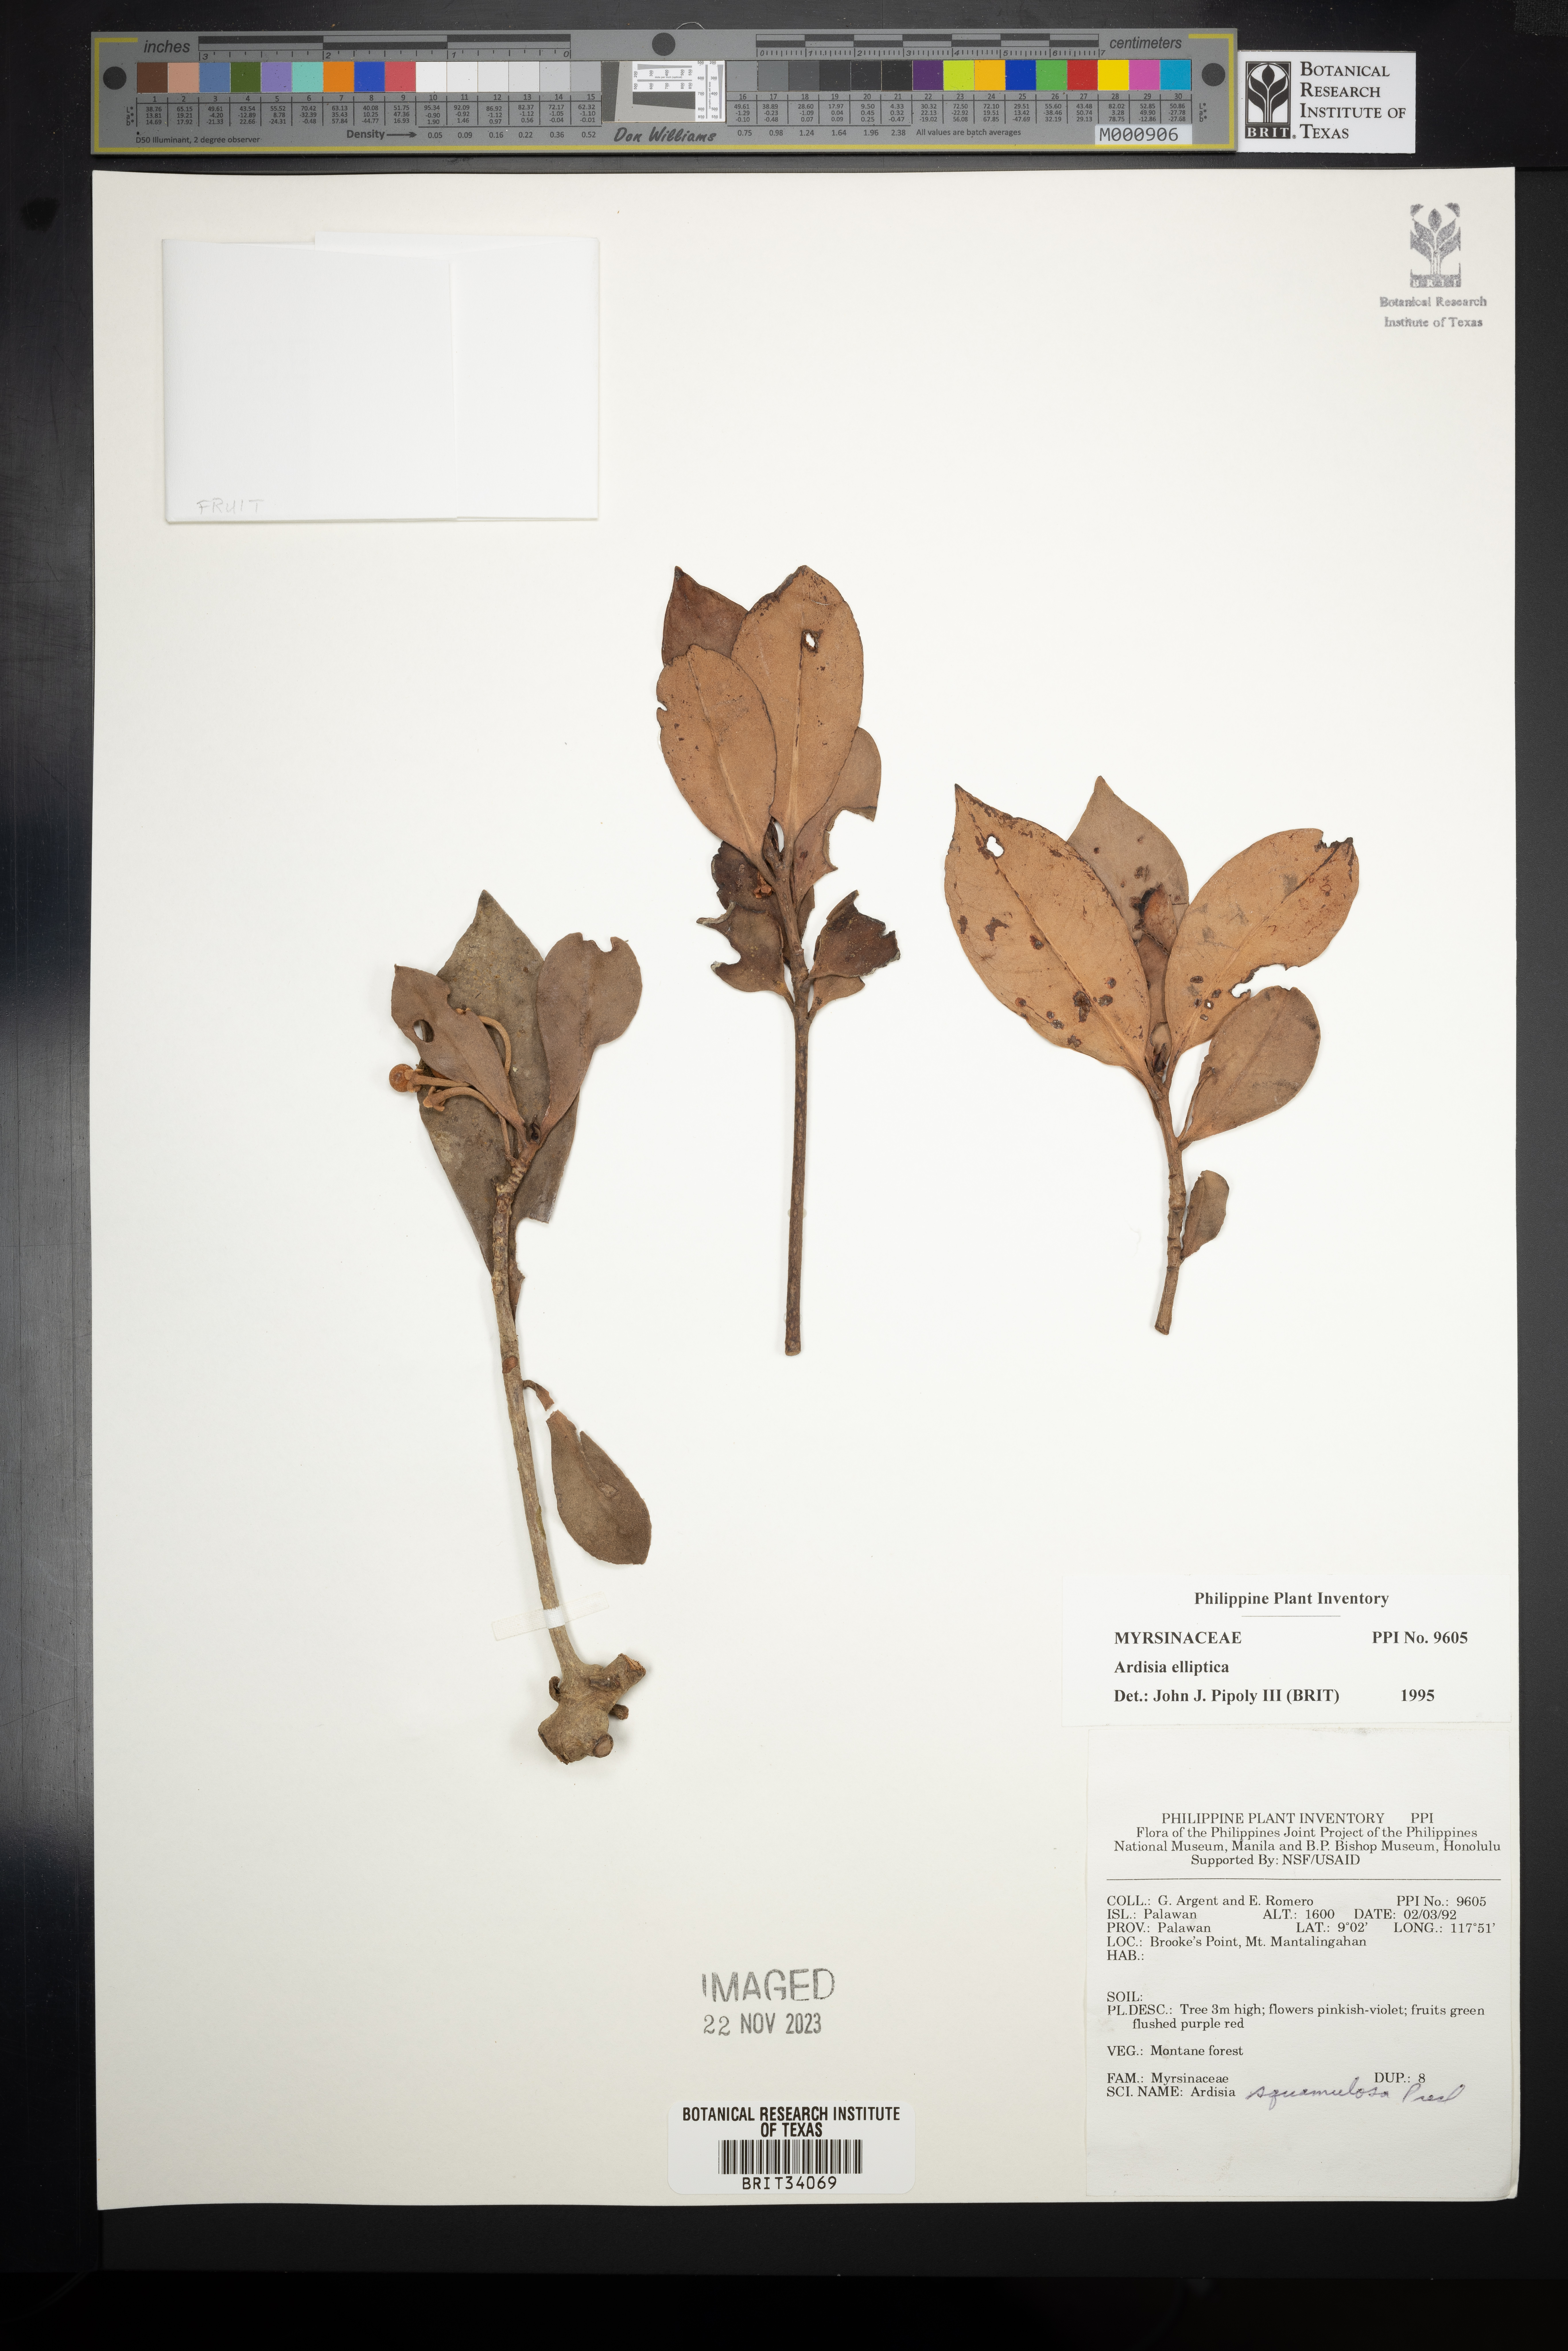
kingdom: Plantae
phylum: Tracheophyta
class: Magnoliopsida
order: Ericales
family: Primulaceae
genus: Ardisia
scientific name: Ardisia elliptica
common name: Shoebutton
